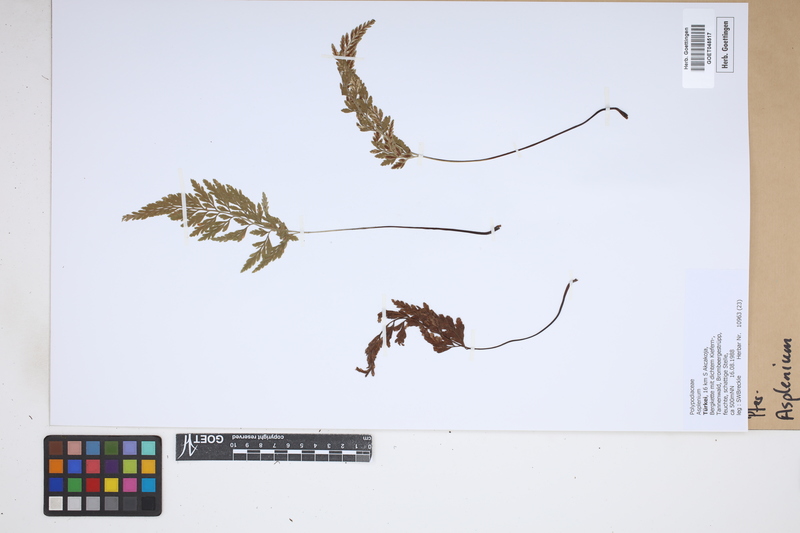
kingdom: Plantae
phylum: Tracheophyta
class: Polypodiopsida
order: Polypodiales
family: Aspleniaceae
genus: Asplenium
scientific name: Asplenium
